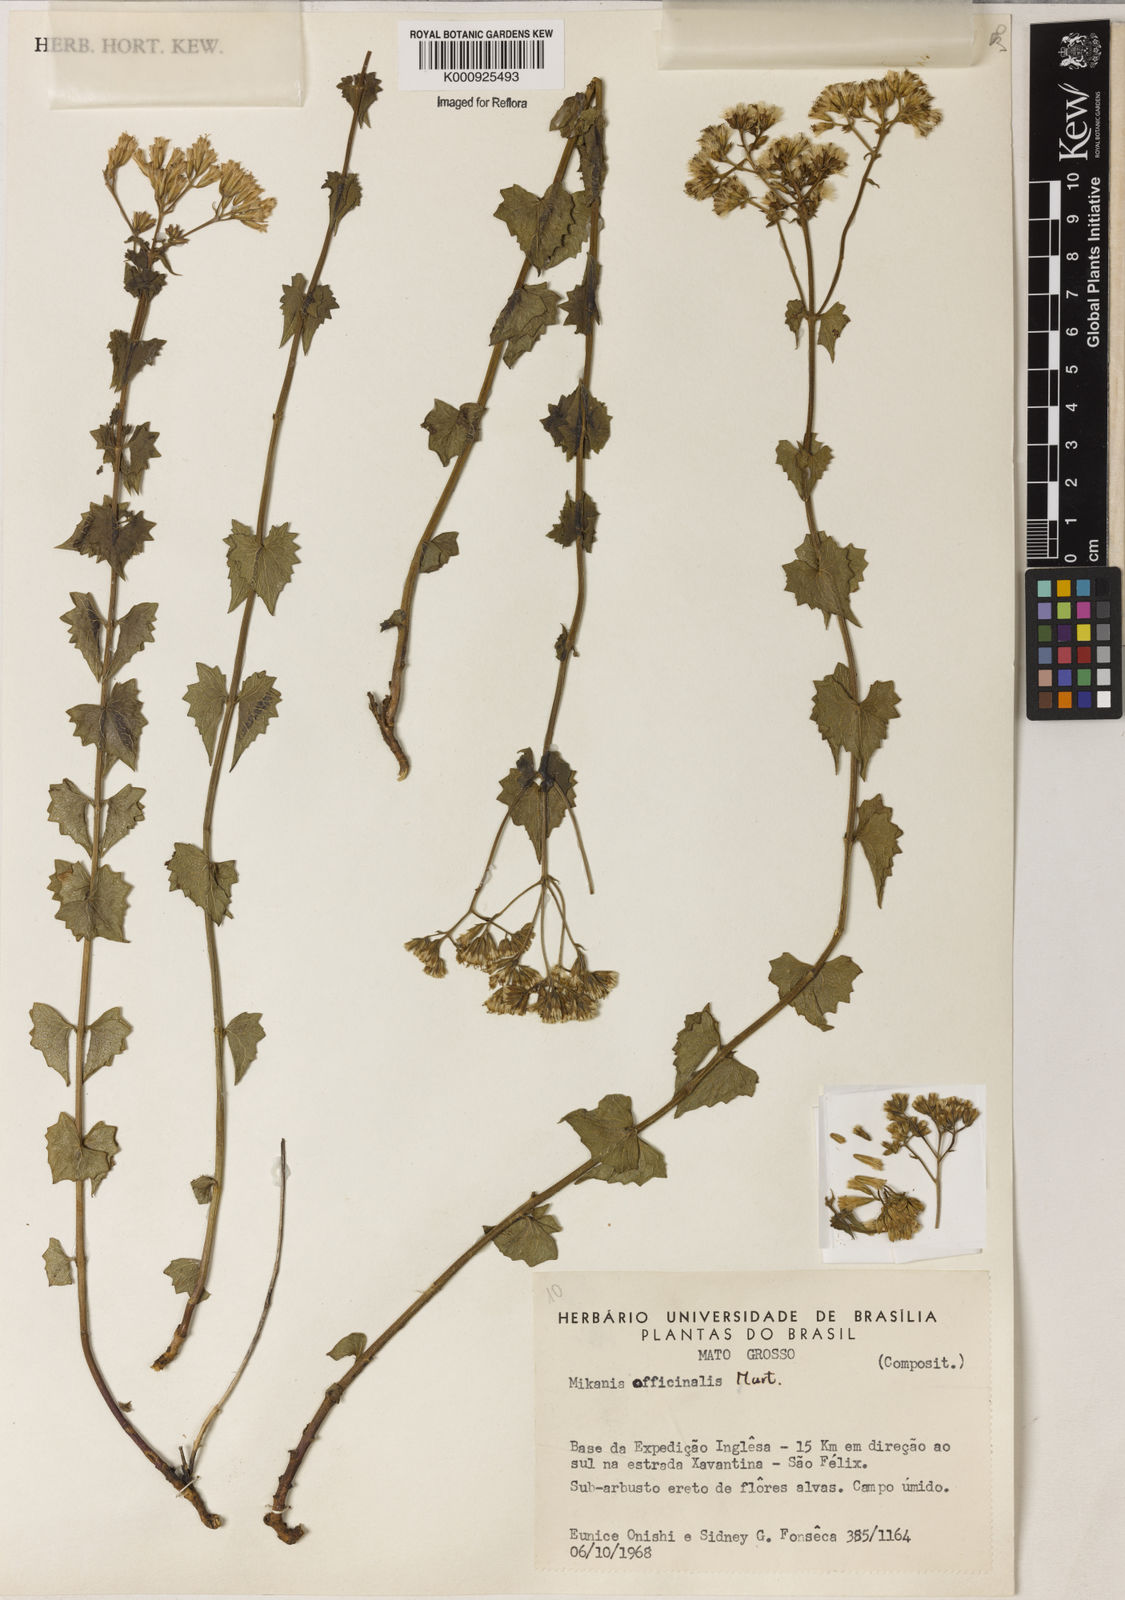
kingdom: Plantae
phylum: Tracheophyta
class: Magnoliopsida
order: Asterales
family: Asteraceae
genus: Mikania
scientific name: Mikania officinalis
